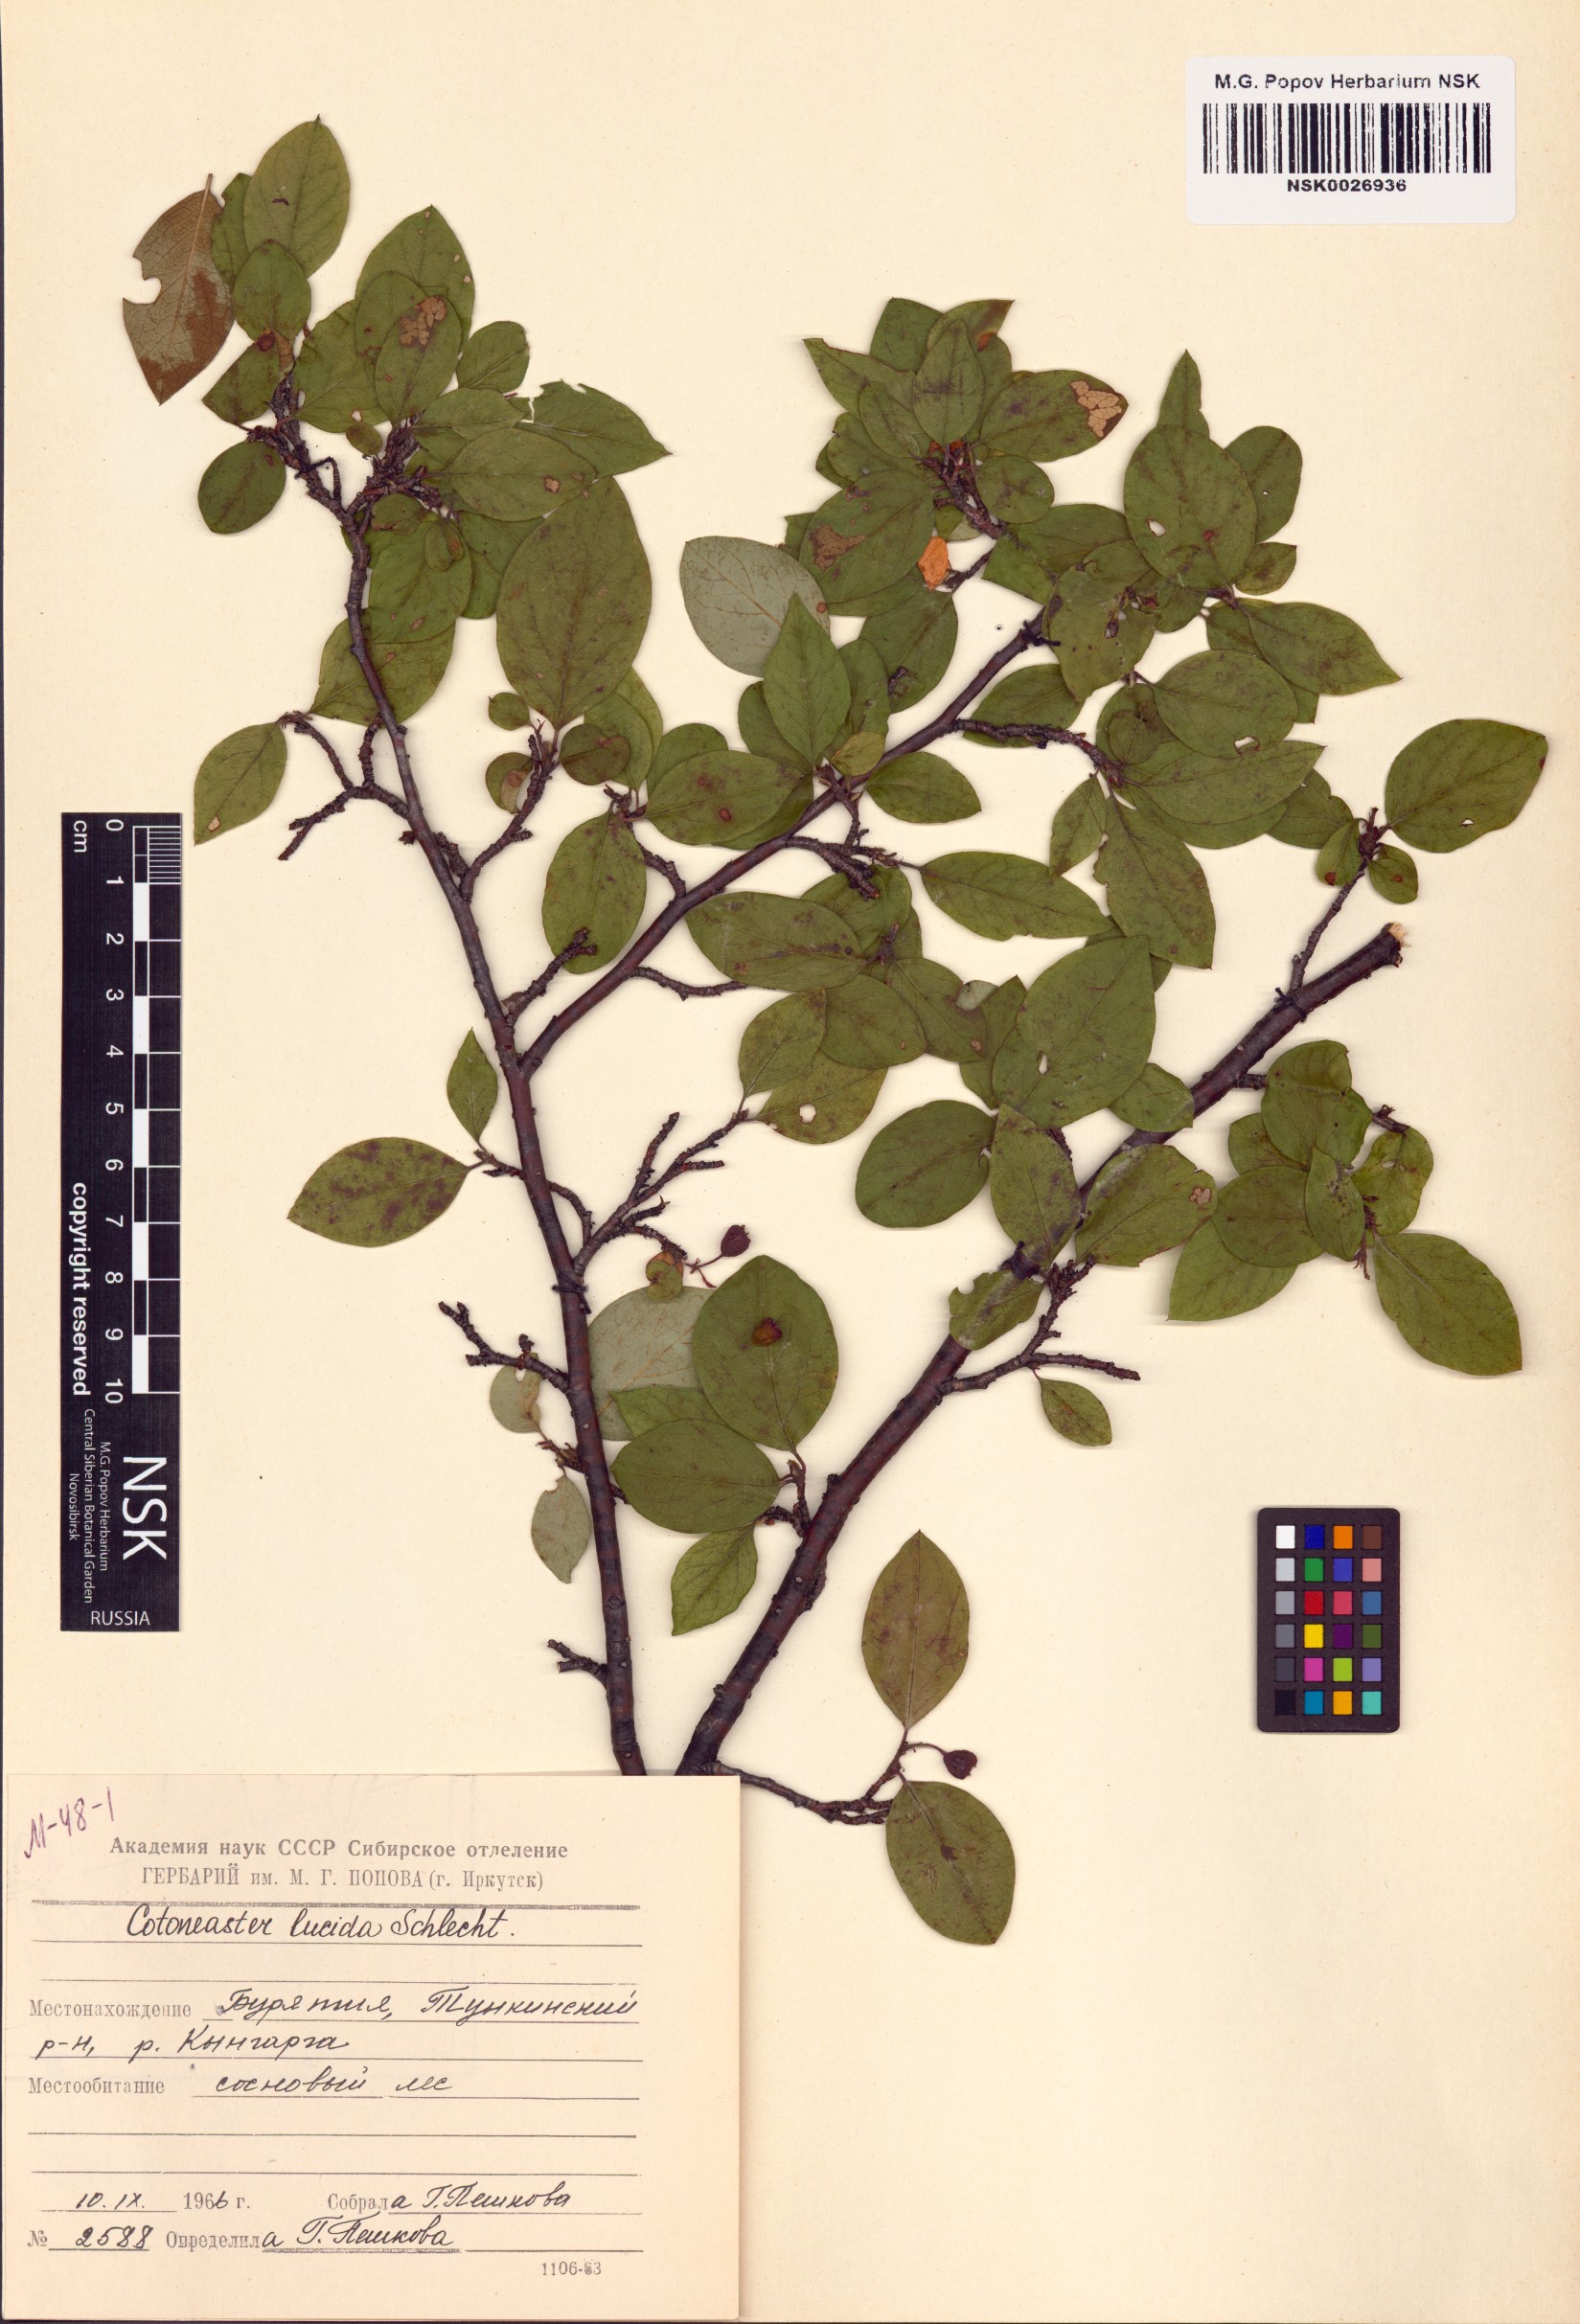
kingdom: Plantae
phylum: Tracheophyta
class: Magnoliopsida
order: Rosales
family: Rosaceae
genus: Cotoneaster
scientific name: Cotoneaster acutifolius
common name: Peking cotoneaster
